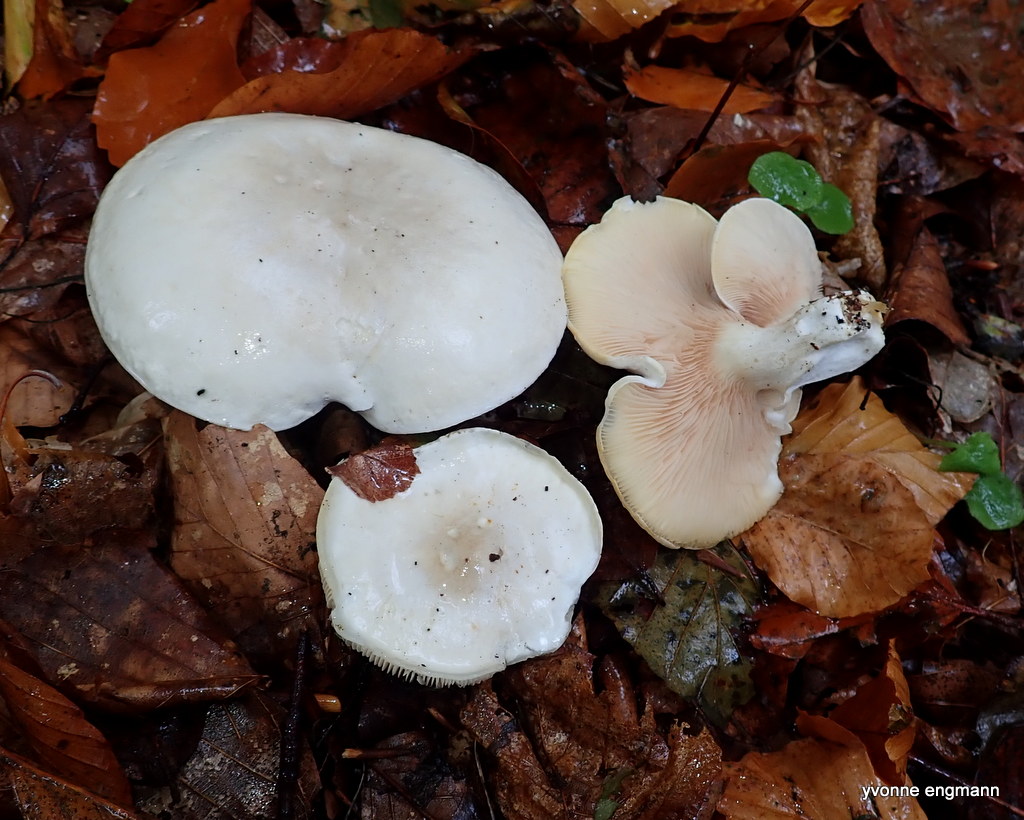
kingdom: Fungi
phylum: Basidiomycota
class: Agaricomycetes
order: Agaricales
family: Entolomataceae
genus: Clitopilus
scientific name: Clitopilus prunulus
